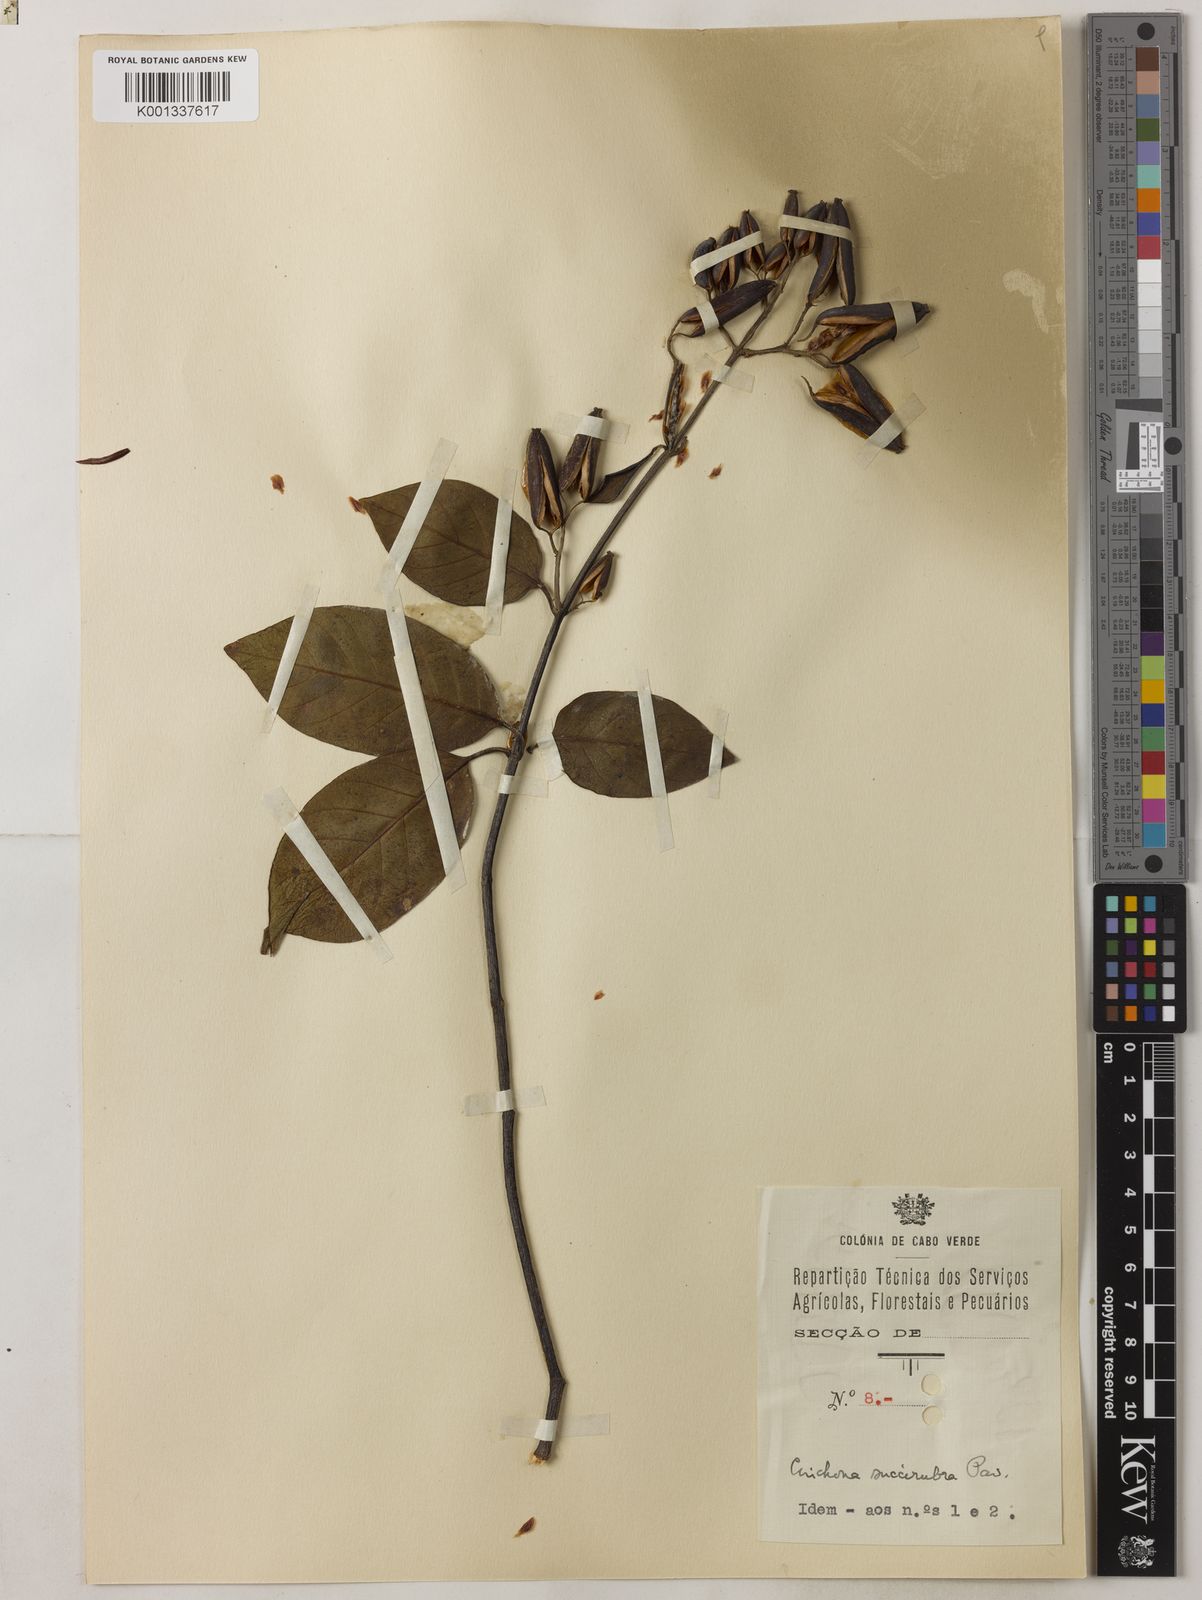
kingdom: Plantae
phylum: Tracheophyta
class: Magnoliopsida
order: Gentianales
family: Rubiaceae
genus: Cinchona
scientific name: Cinchona pubescens
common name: Quinine
